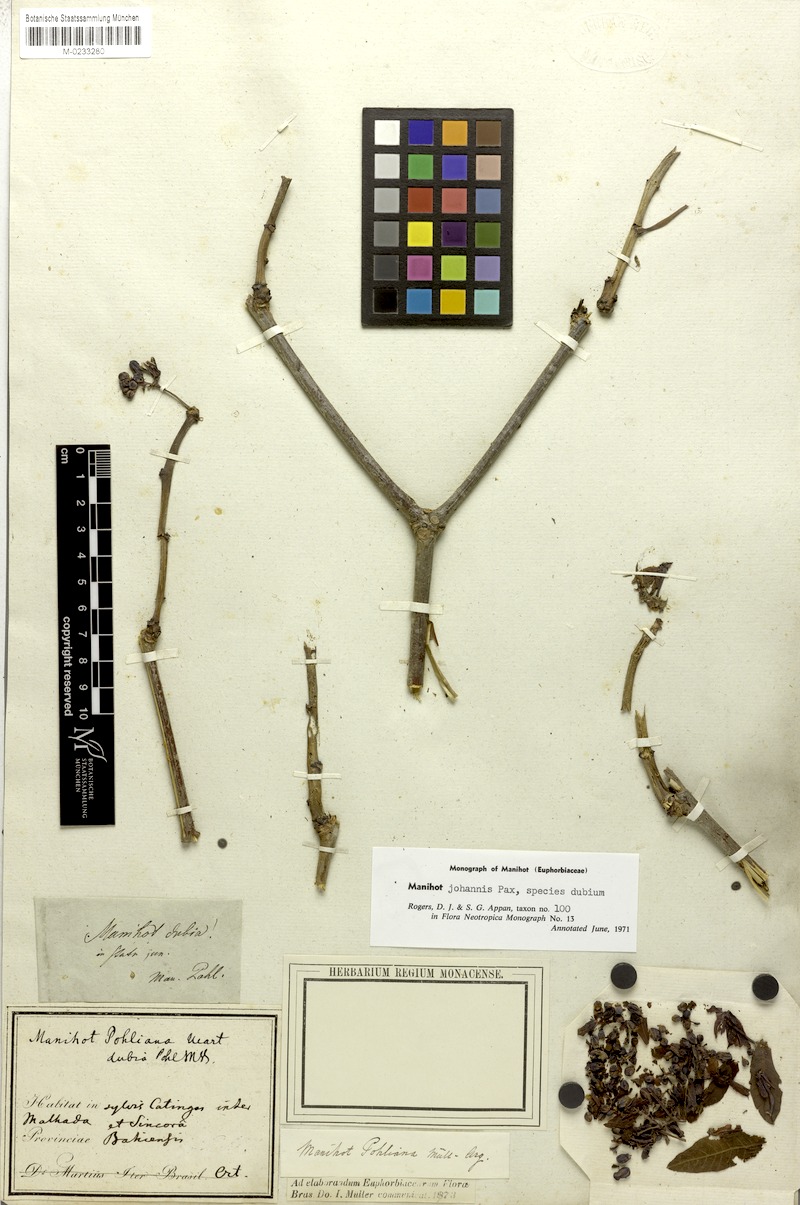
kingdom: Plantae
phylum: Tracheophyta
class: Magnoliopsida
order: Malpighiales
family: Euphorbiaceae
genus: Manihot
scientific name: Manihot pohliana
